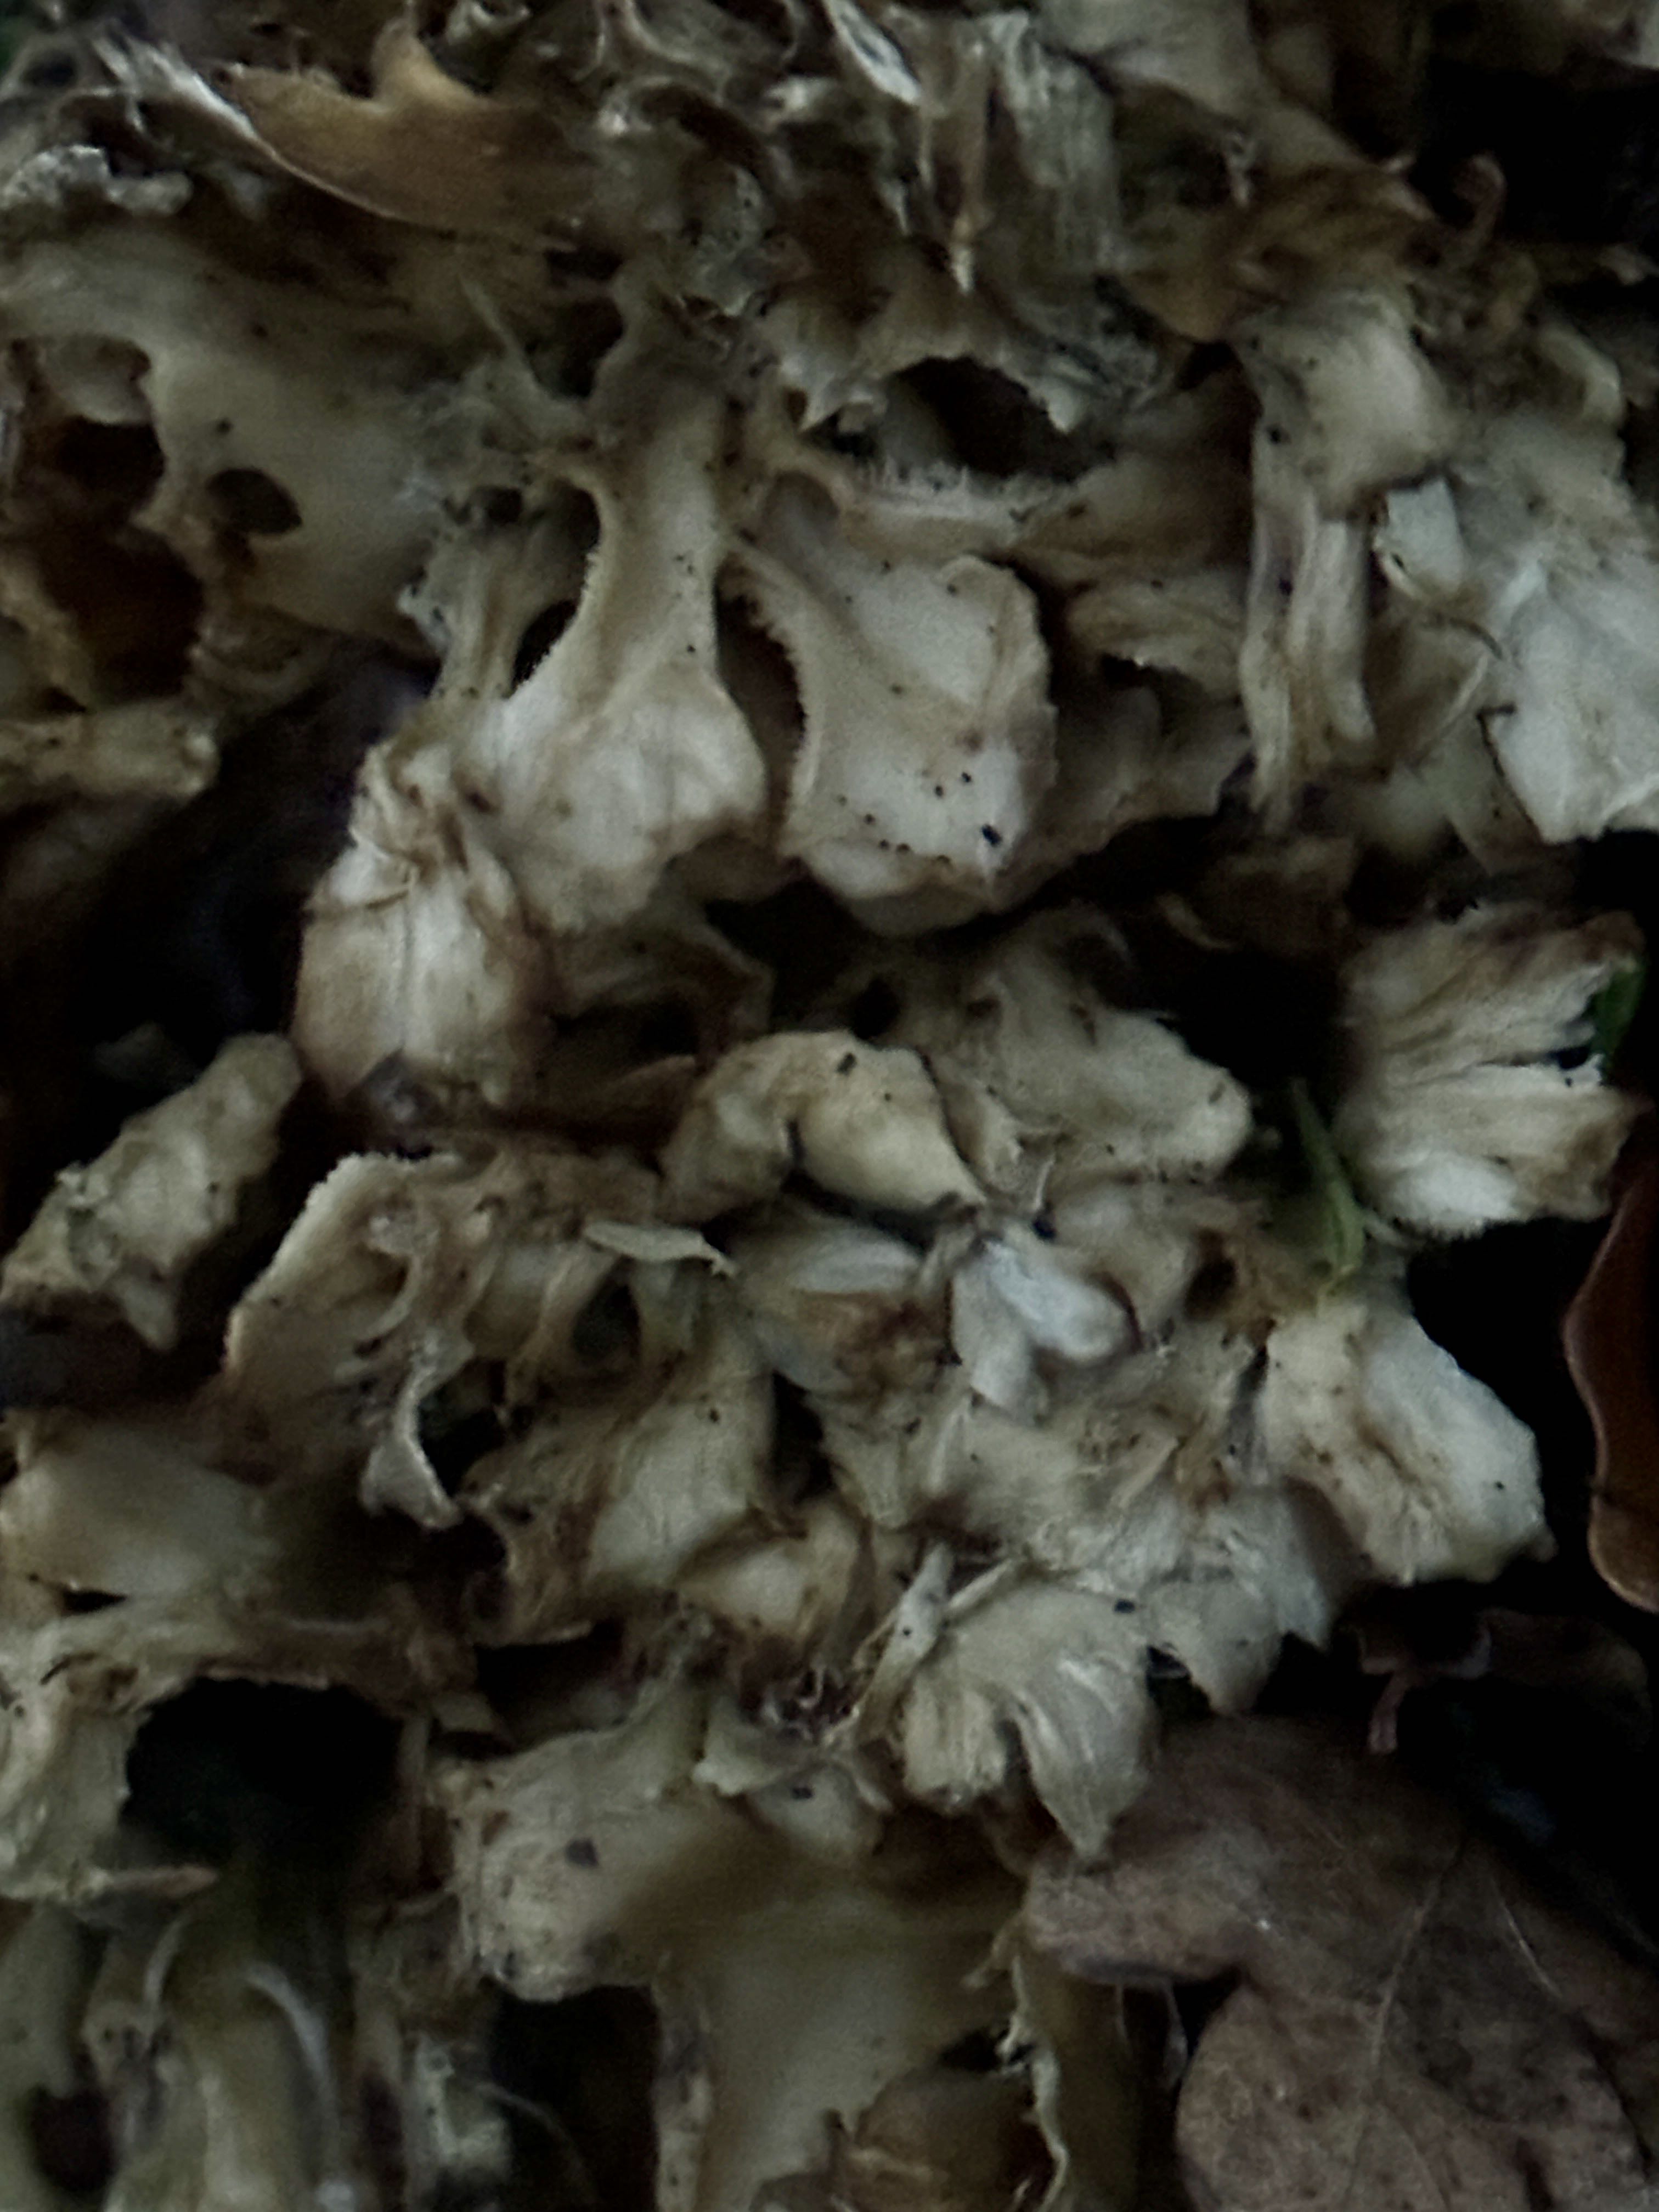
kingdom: Fungi
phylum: Basidiomycota
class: Agaricomycetes
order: Polyporales
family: Grifolaceae
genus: Grifola
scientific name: Grifola frondosa
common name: tueporesvamp
